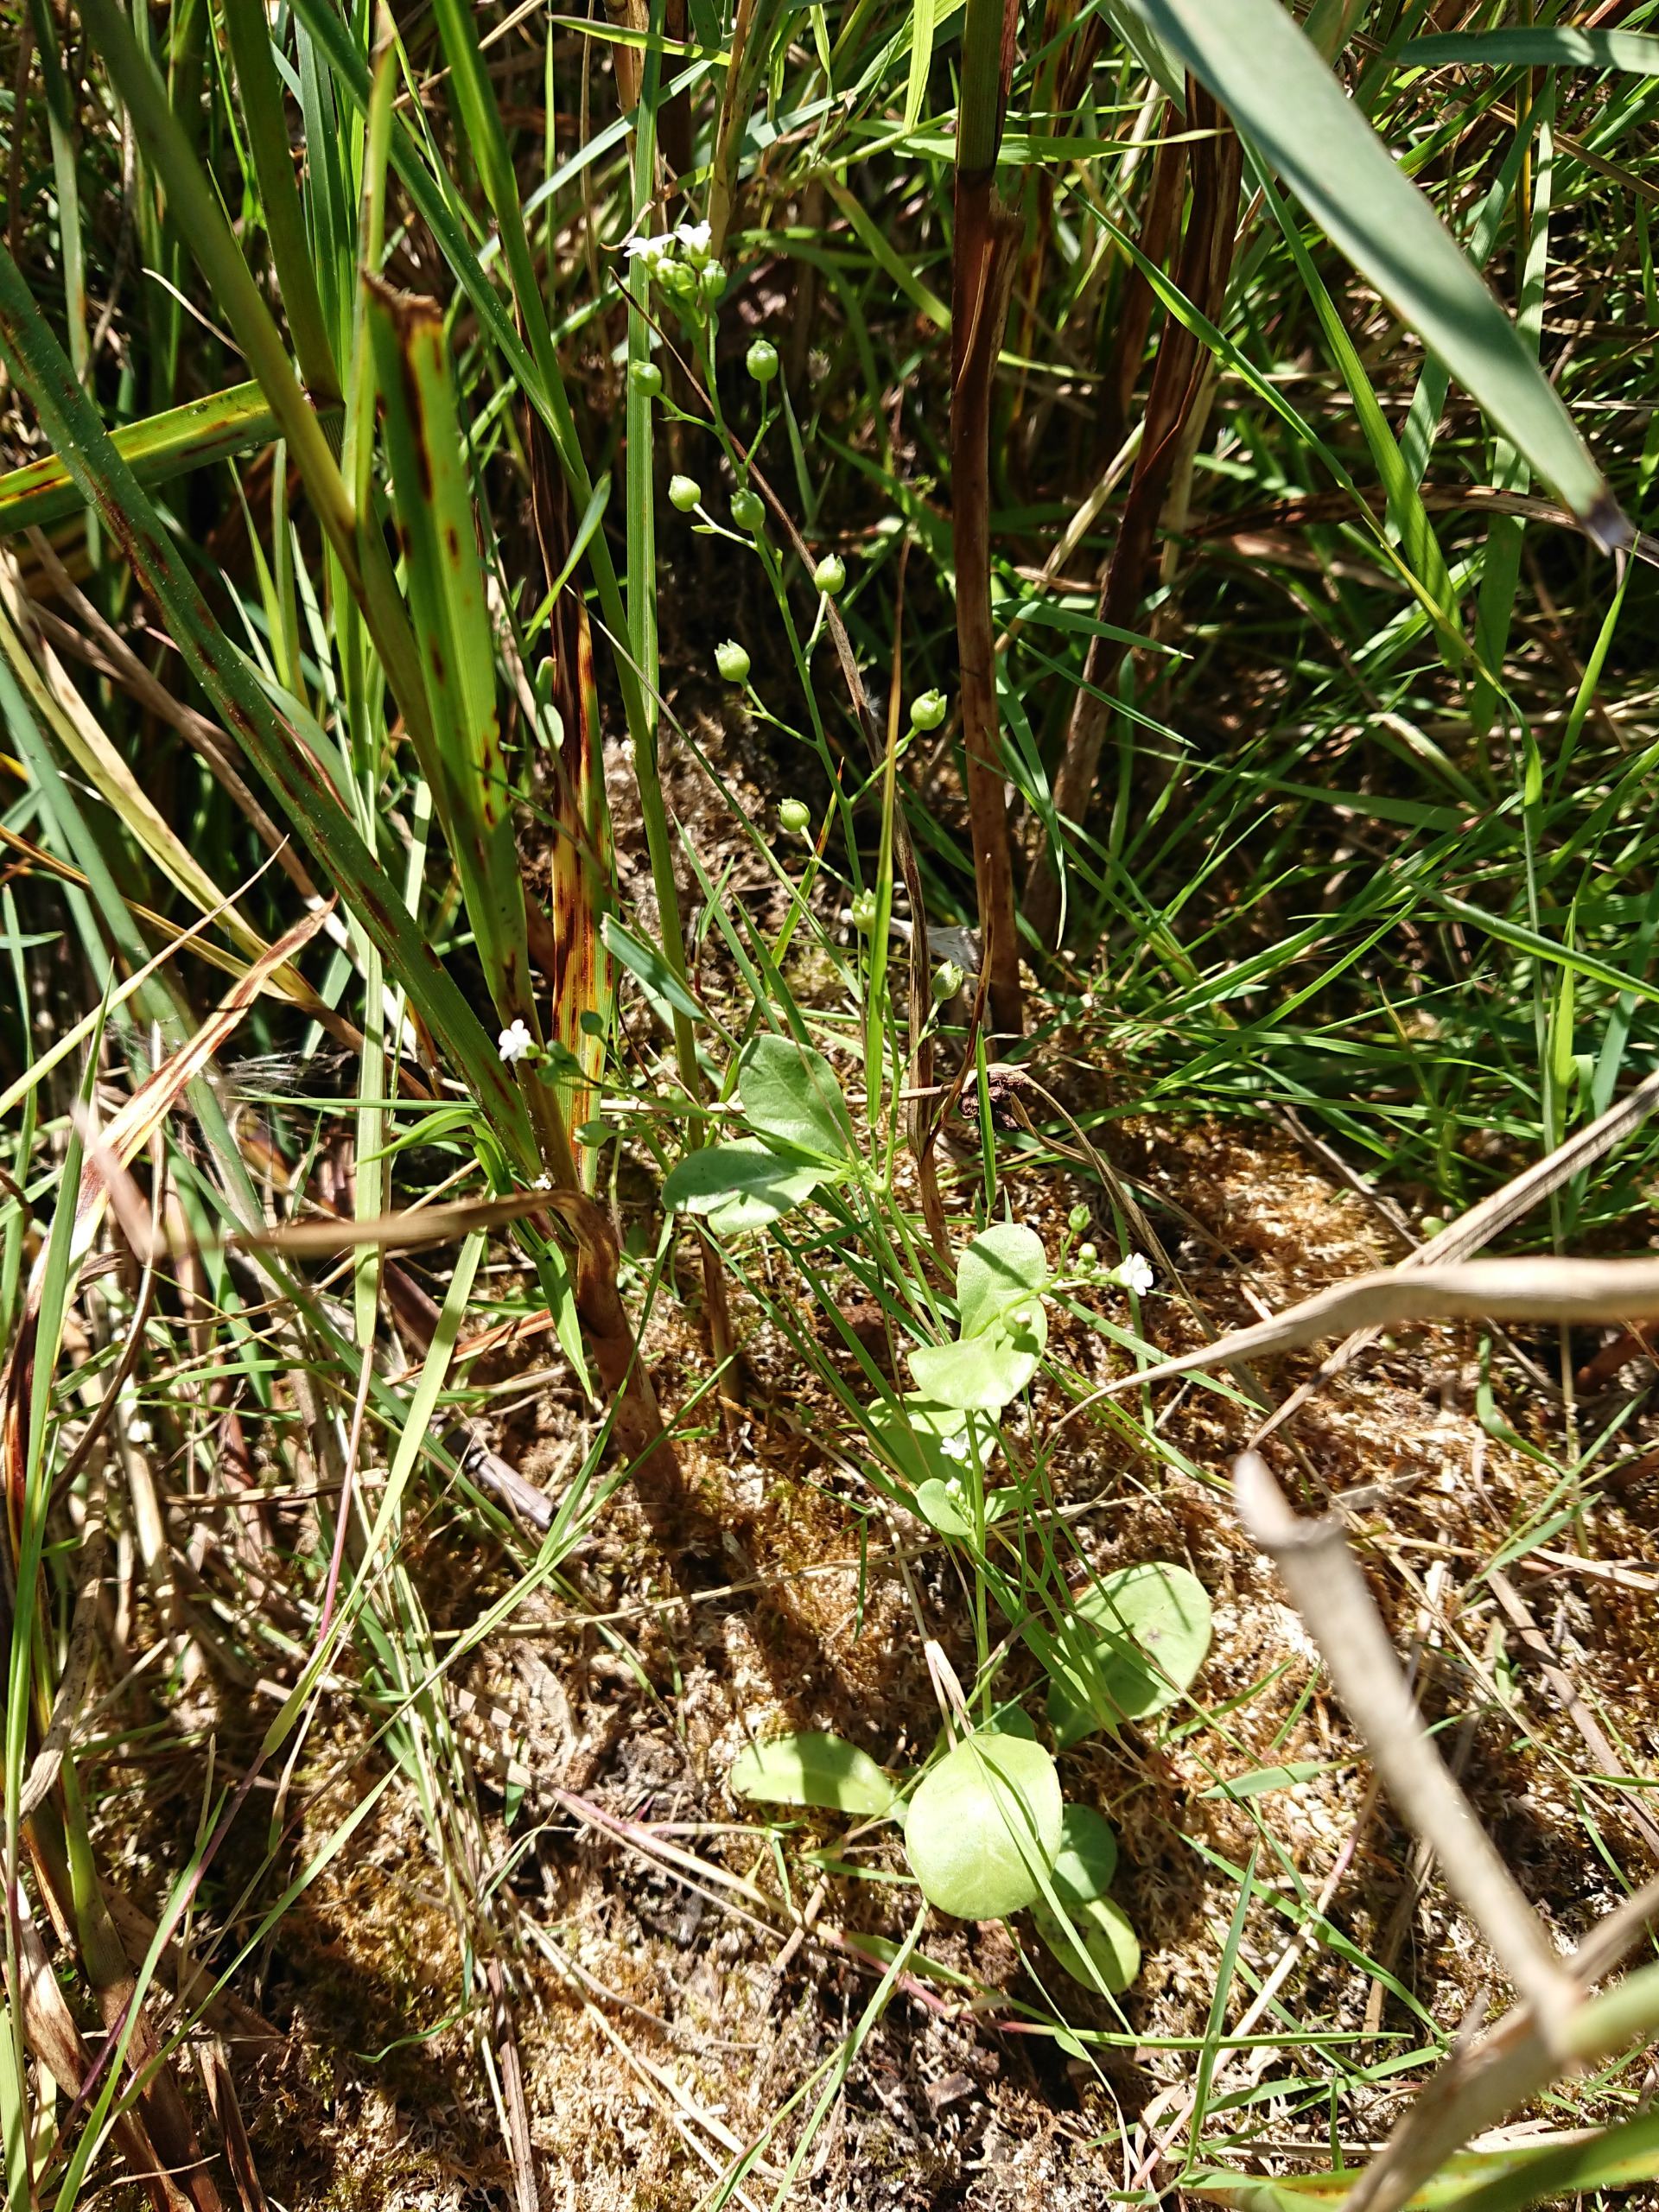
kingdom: Plantae
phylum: Tracheophyta
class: Magnoliopsida
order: Ericales
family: Primulaceae
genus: Samolus
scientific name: Samolus valerandi
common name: Samel
